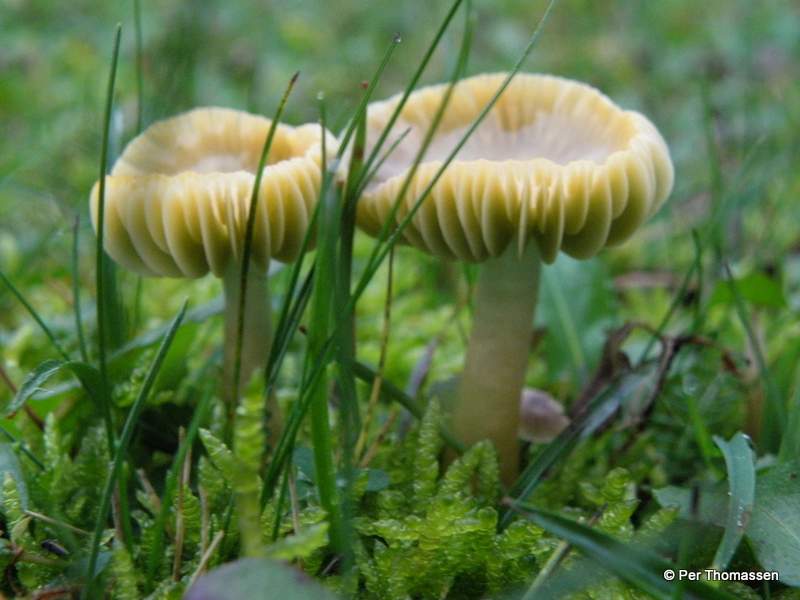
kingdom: Fungi
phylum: Basidiomycota
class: Agaricomycetes
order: Agaricales
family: Hygrophoraceae
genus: Gliophorus
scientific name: Gliophorus psittacinus
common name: papegøje-vokshat
